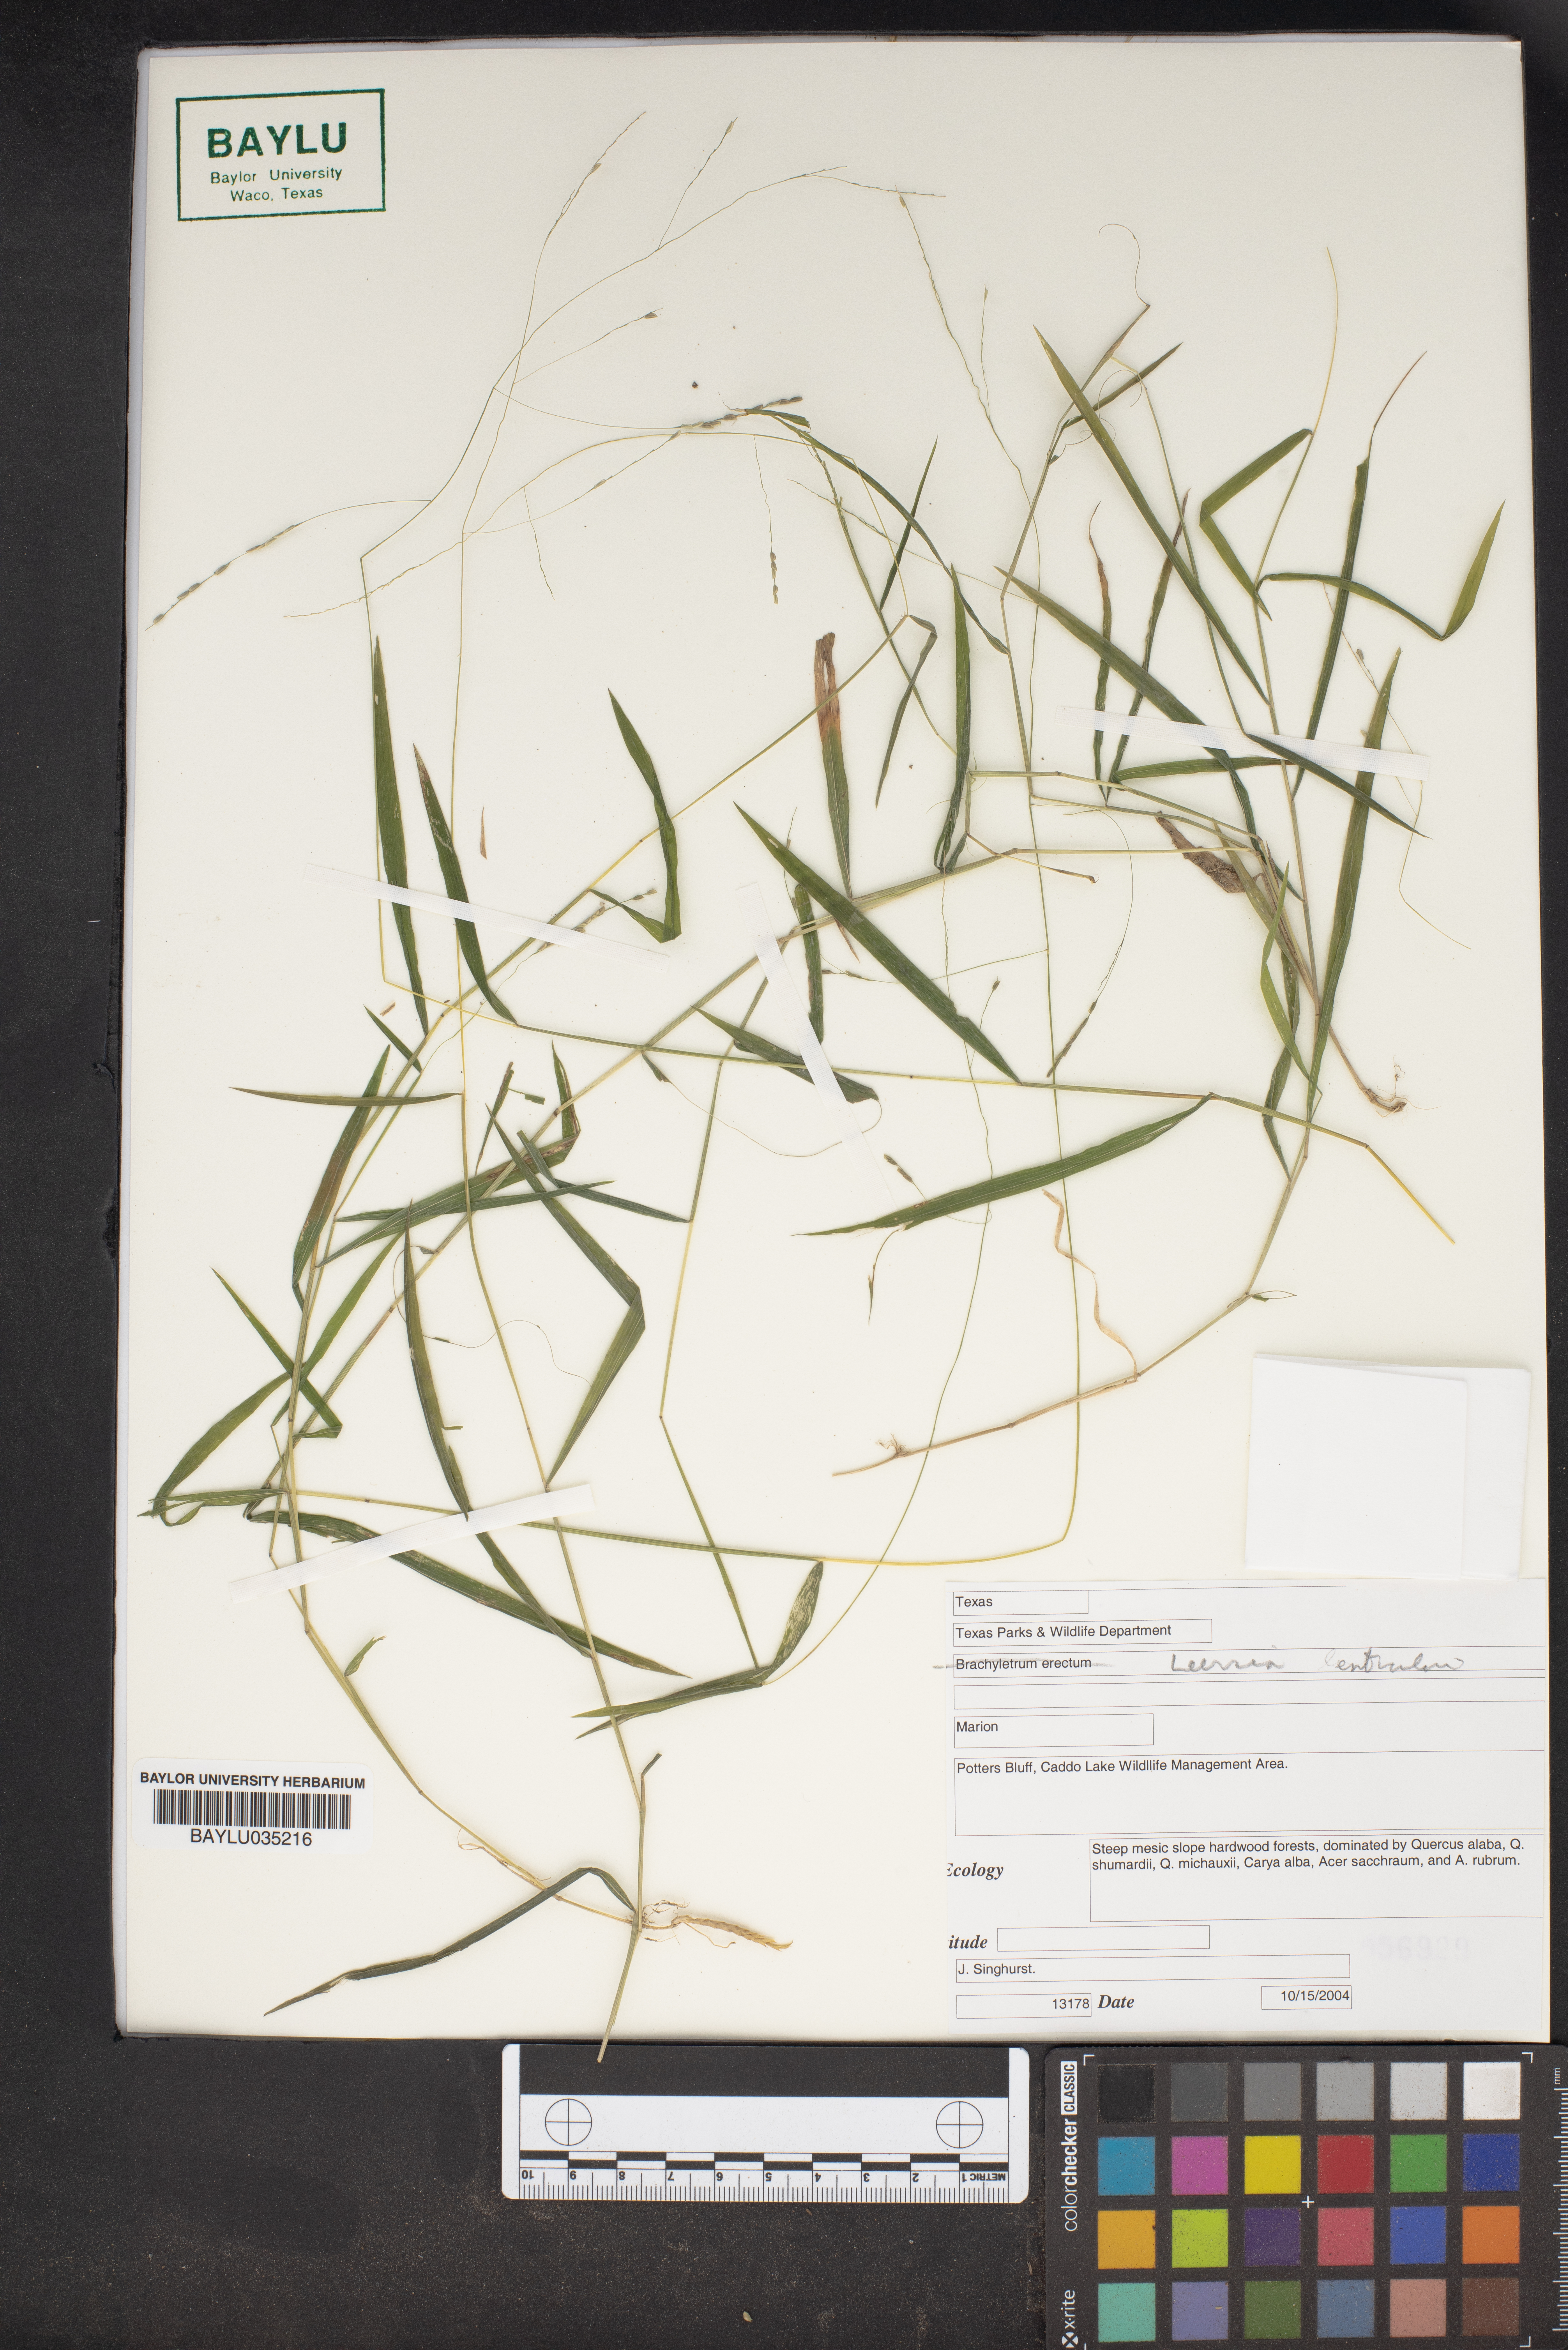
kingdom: Plantae
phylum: Tracheophyta
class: Liliopsida
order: Poales
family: Poaceae
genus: Leersia
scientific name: Leersia lenticularis
